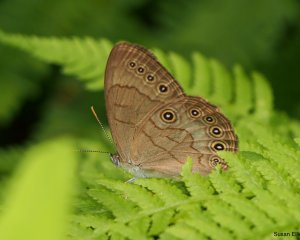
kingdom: Animalia
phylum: Arthropoda
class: Insecta
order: Lepidoptera
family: Nymphalidae
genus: Lethe
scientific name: Lethe eurydice
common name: Appalachian Eyed Brown
